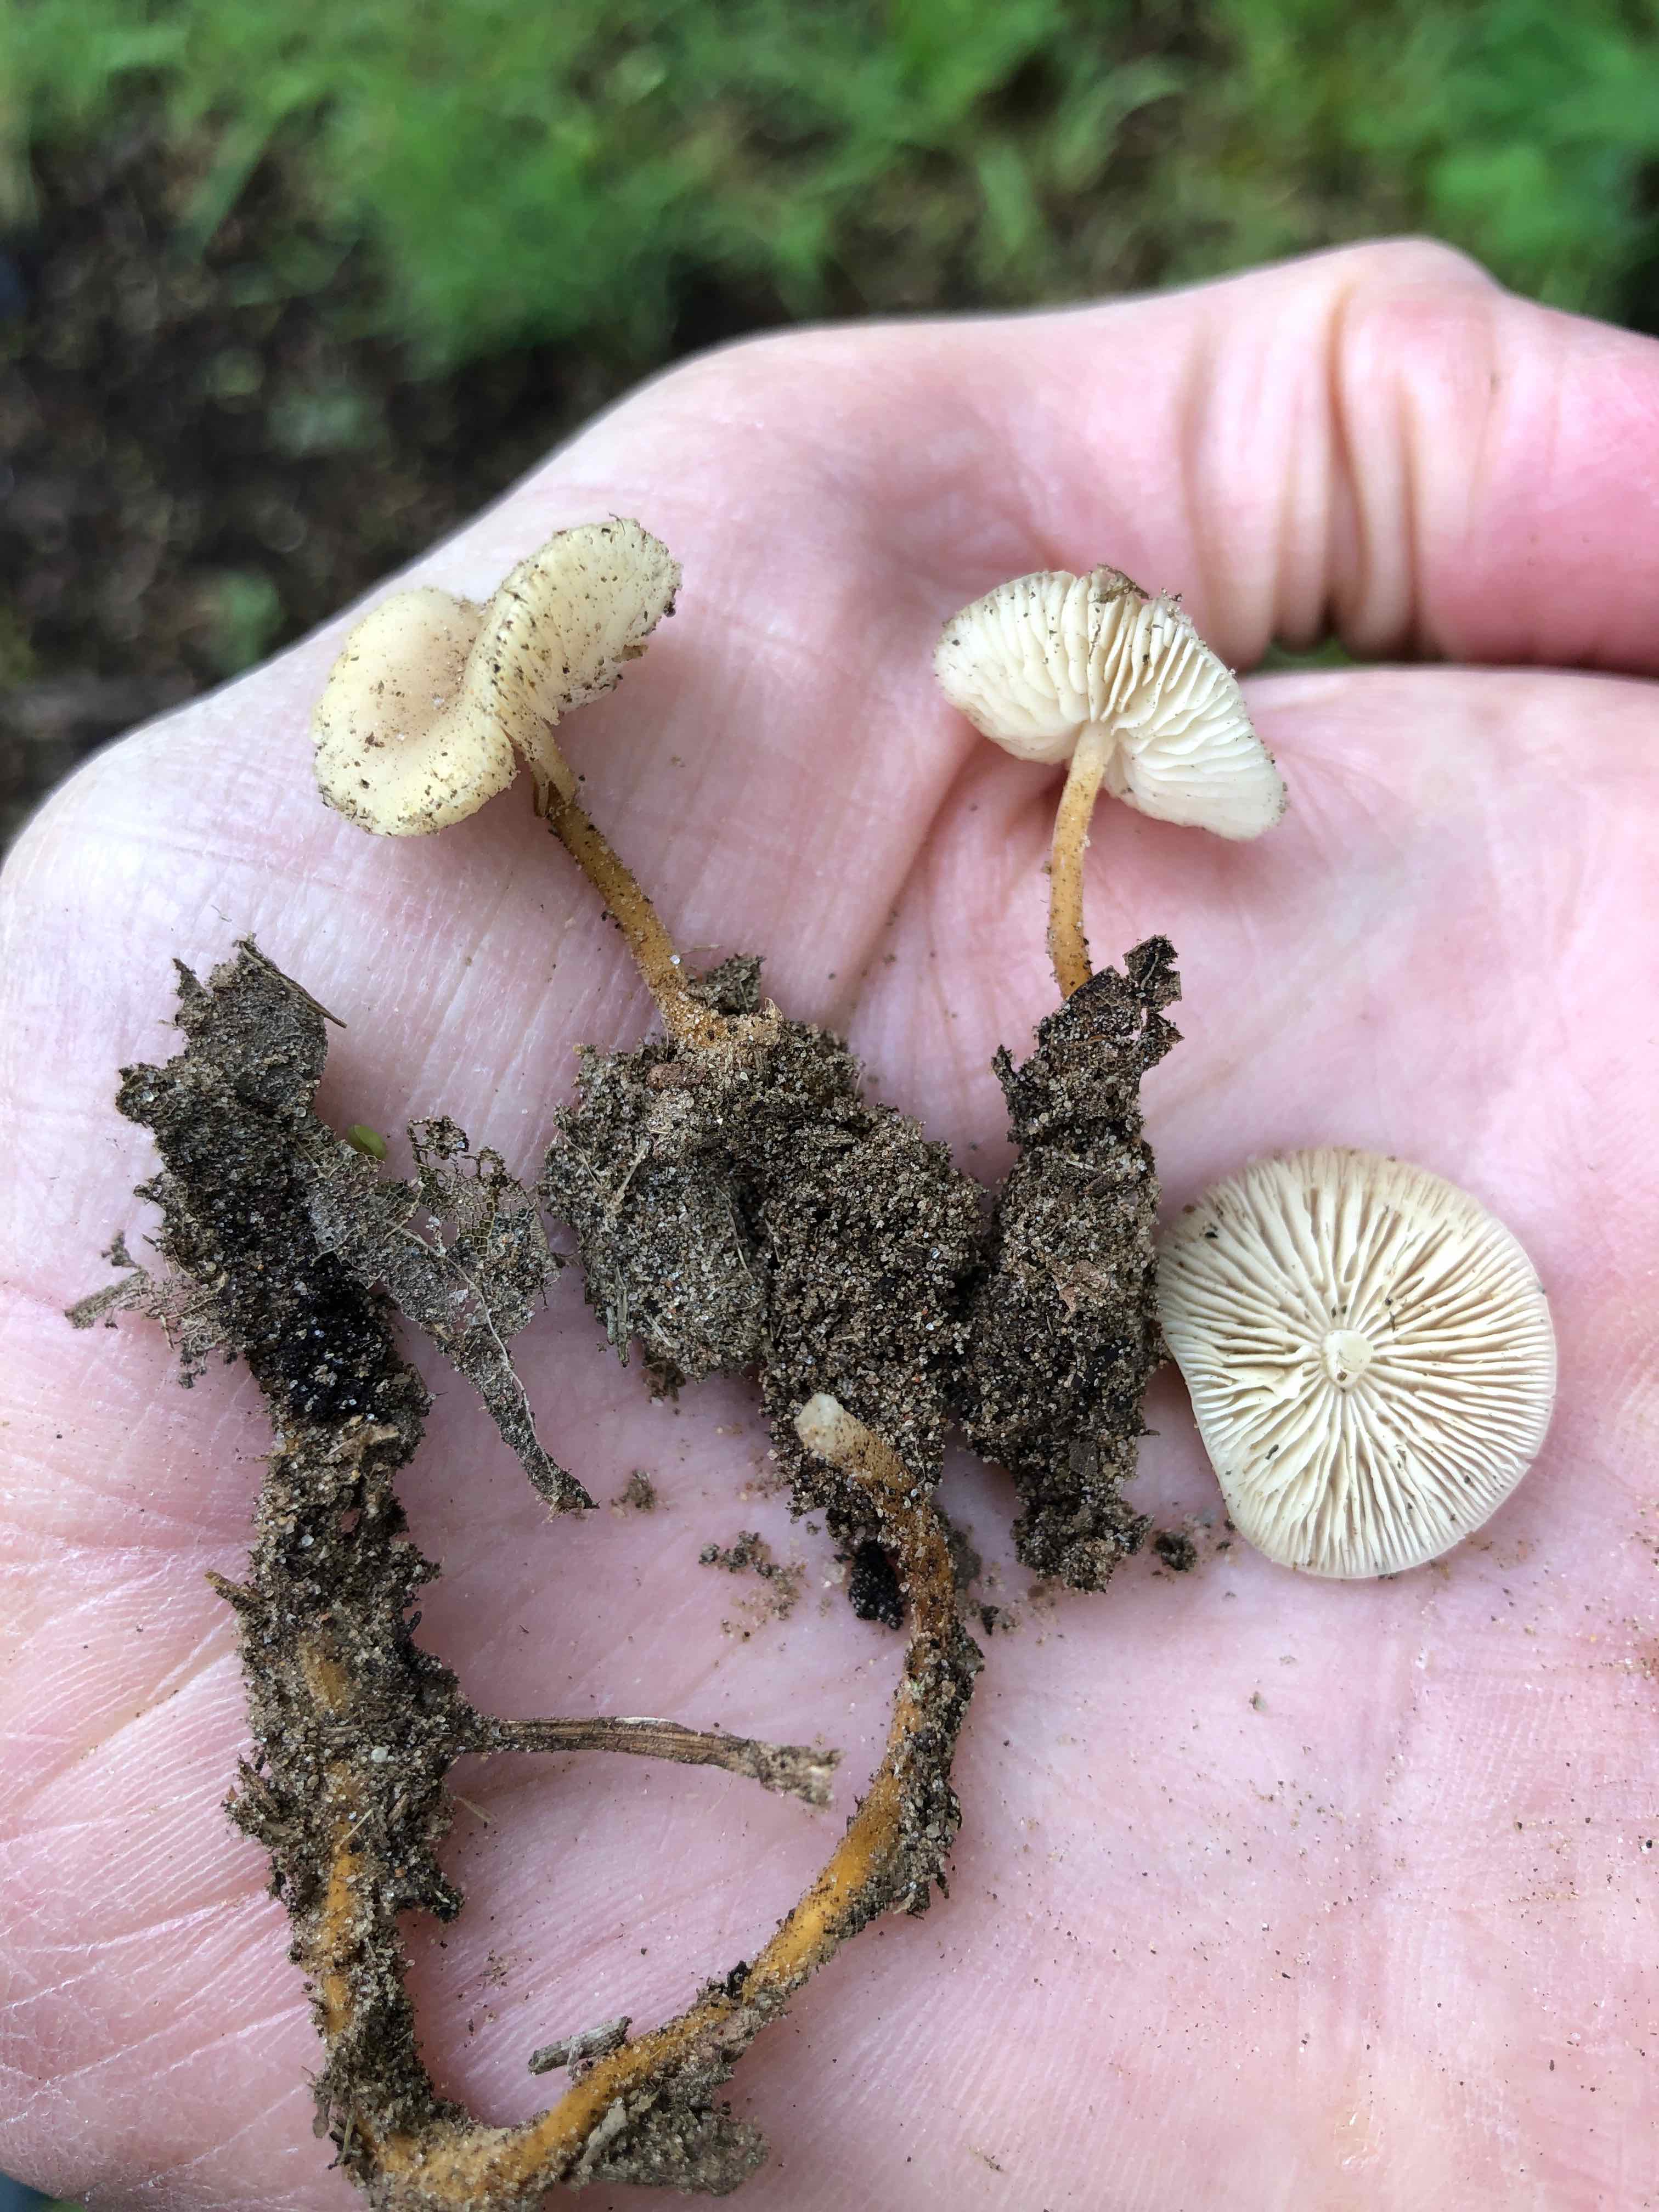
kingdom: Fungi
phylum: Basidiomycota
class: Agaricomycetes
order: Agaricales
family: Physalacriaceae
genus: Strobilurus
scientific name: Strobilurus tenacellus
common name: sommer-koglehat
